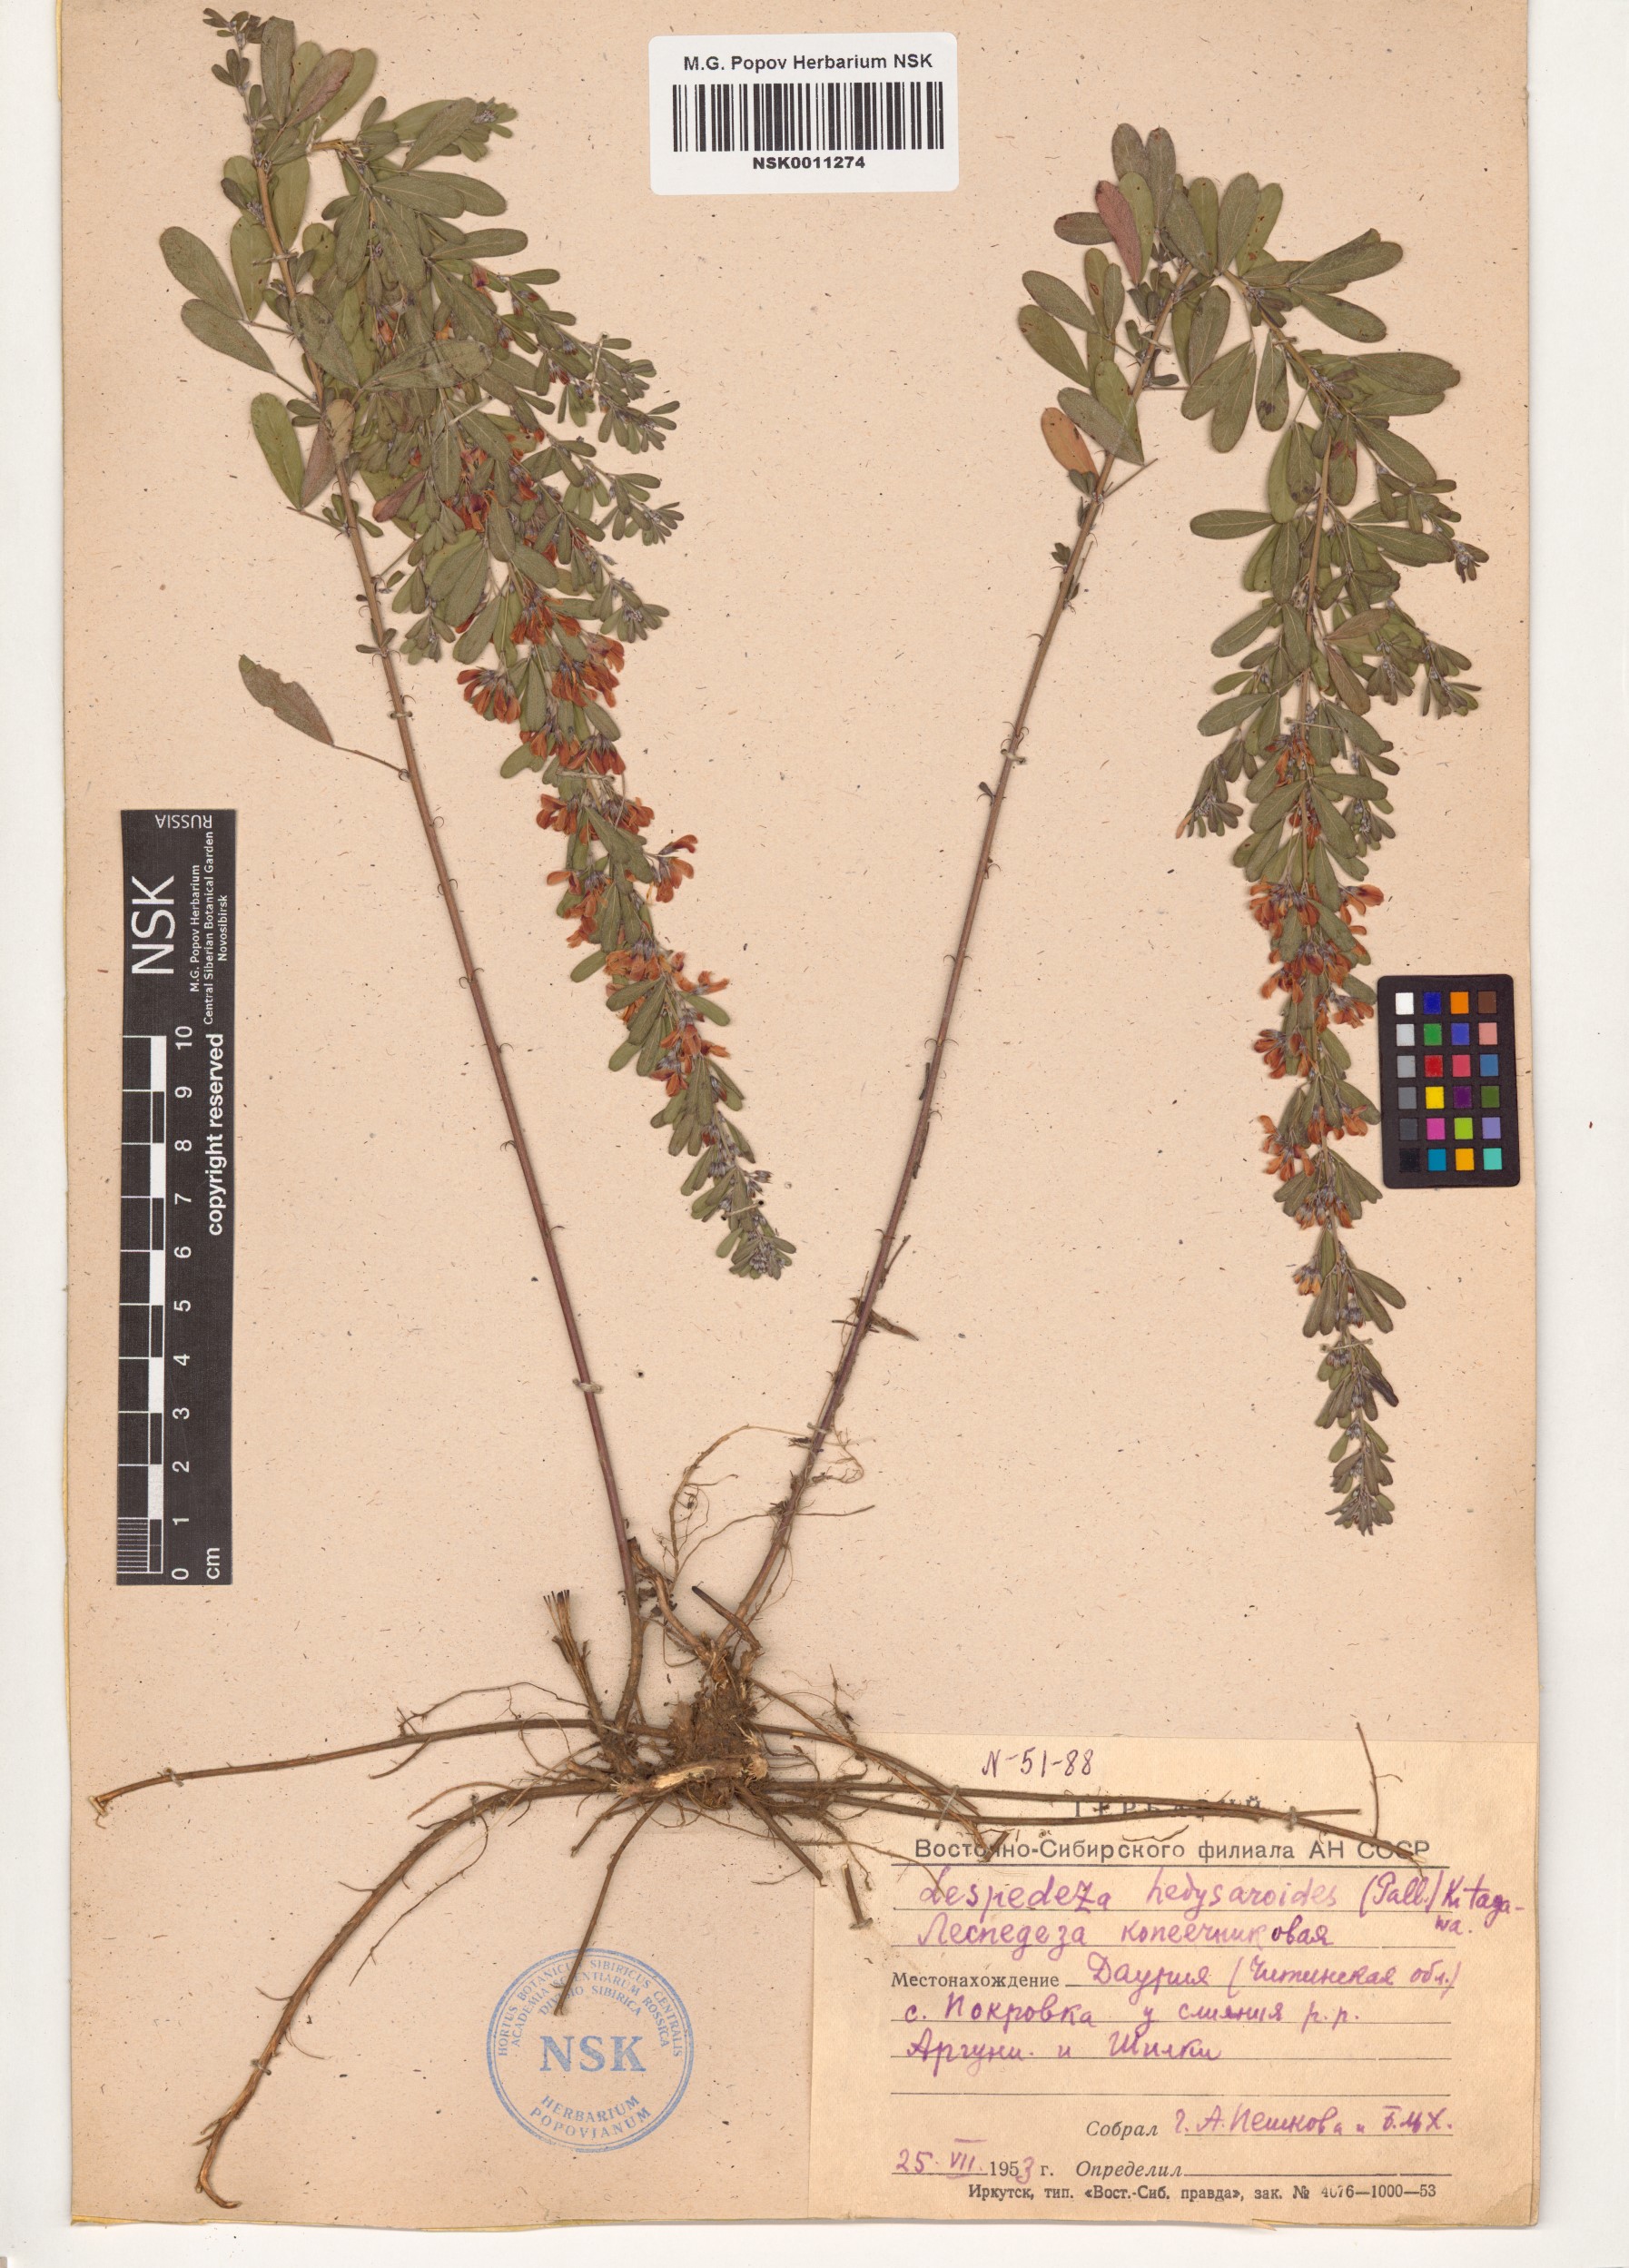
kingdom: Plantae
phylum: Tracheophyta
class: Magnoliopsida
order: Fabales
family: Fabaceae
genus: Lespedeza
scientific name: Lespedeza juncea
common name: Siberian lespedeza
